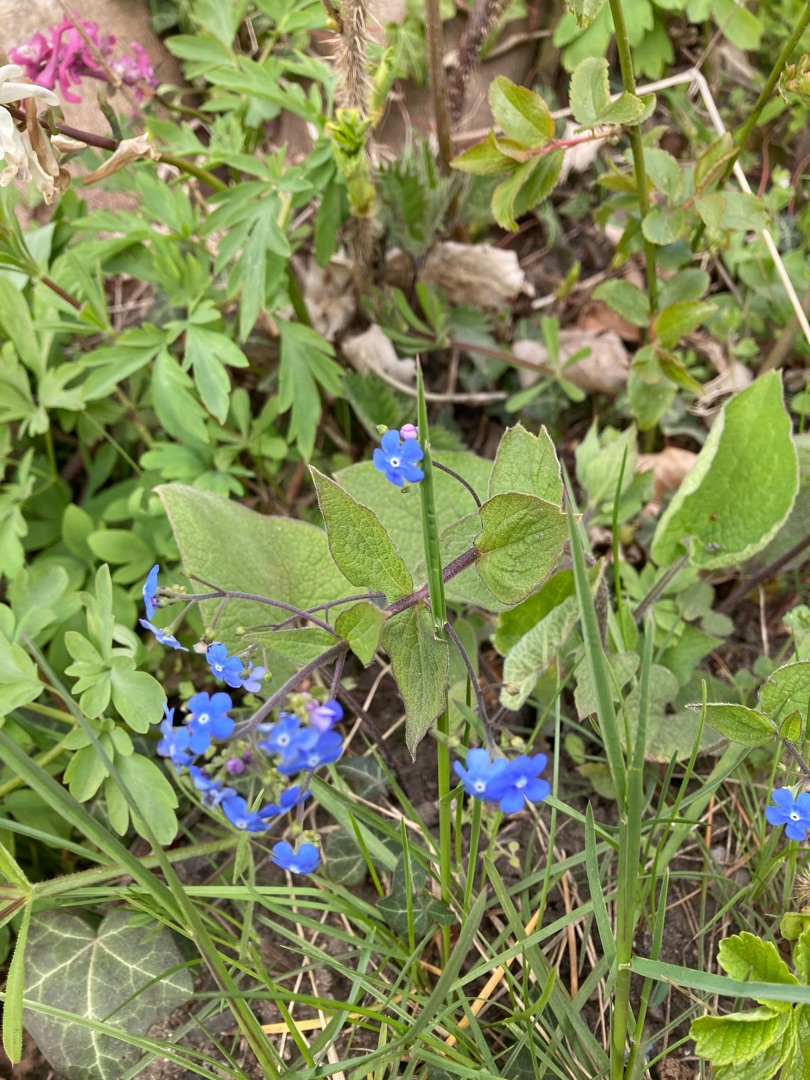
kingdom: Plantae
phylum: Tracheophyta
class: Magnoliopsida
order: Boraginales
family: Boraginaceae
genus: Brunnera
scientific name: Brunnera macrophylla
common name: Kærmindesøster
